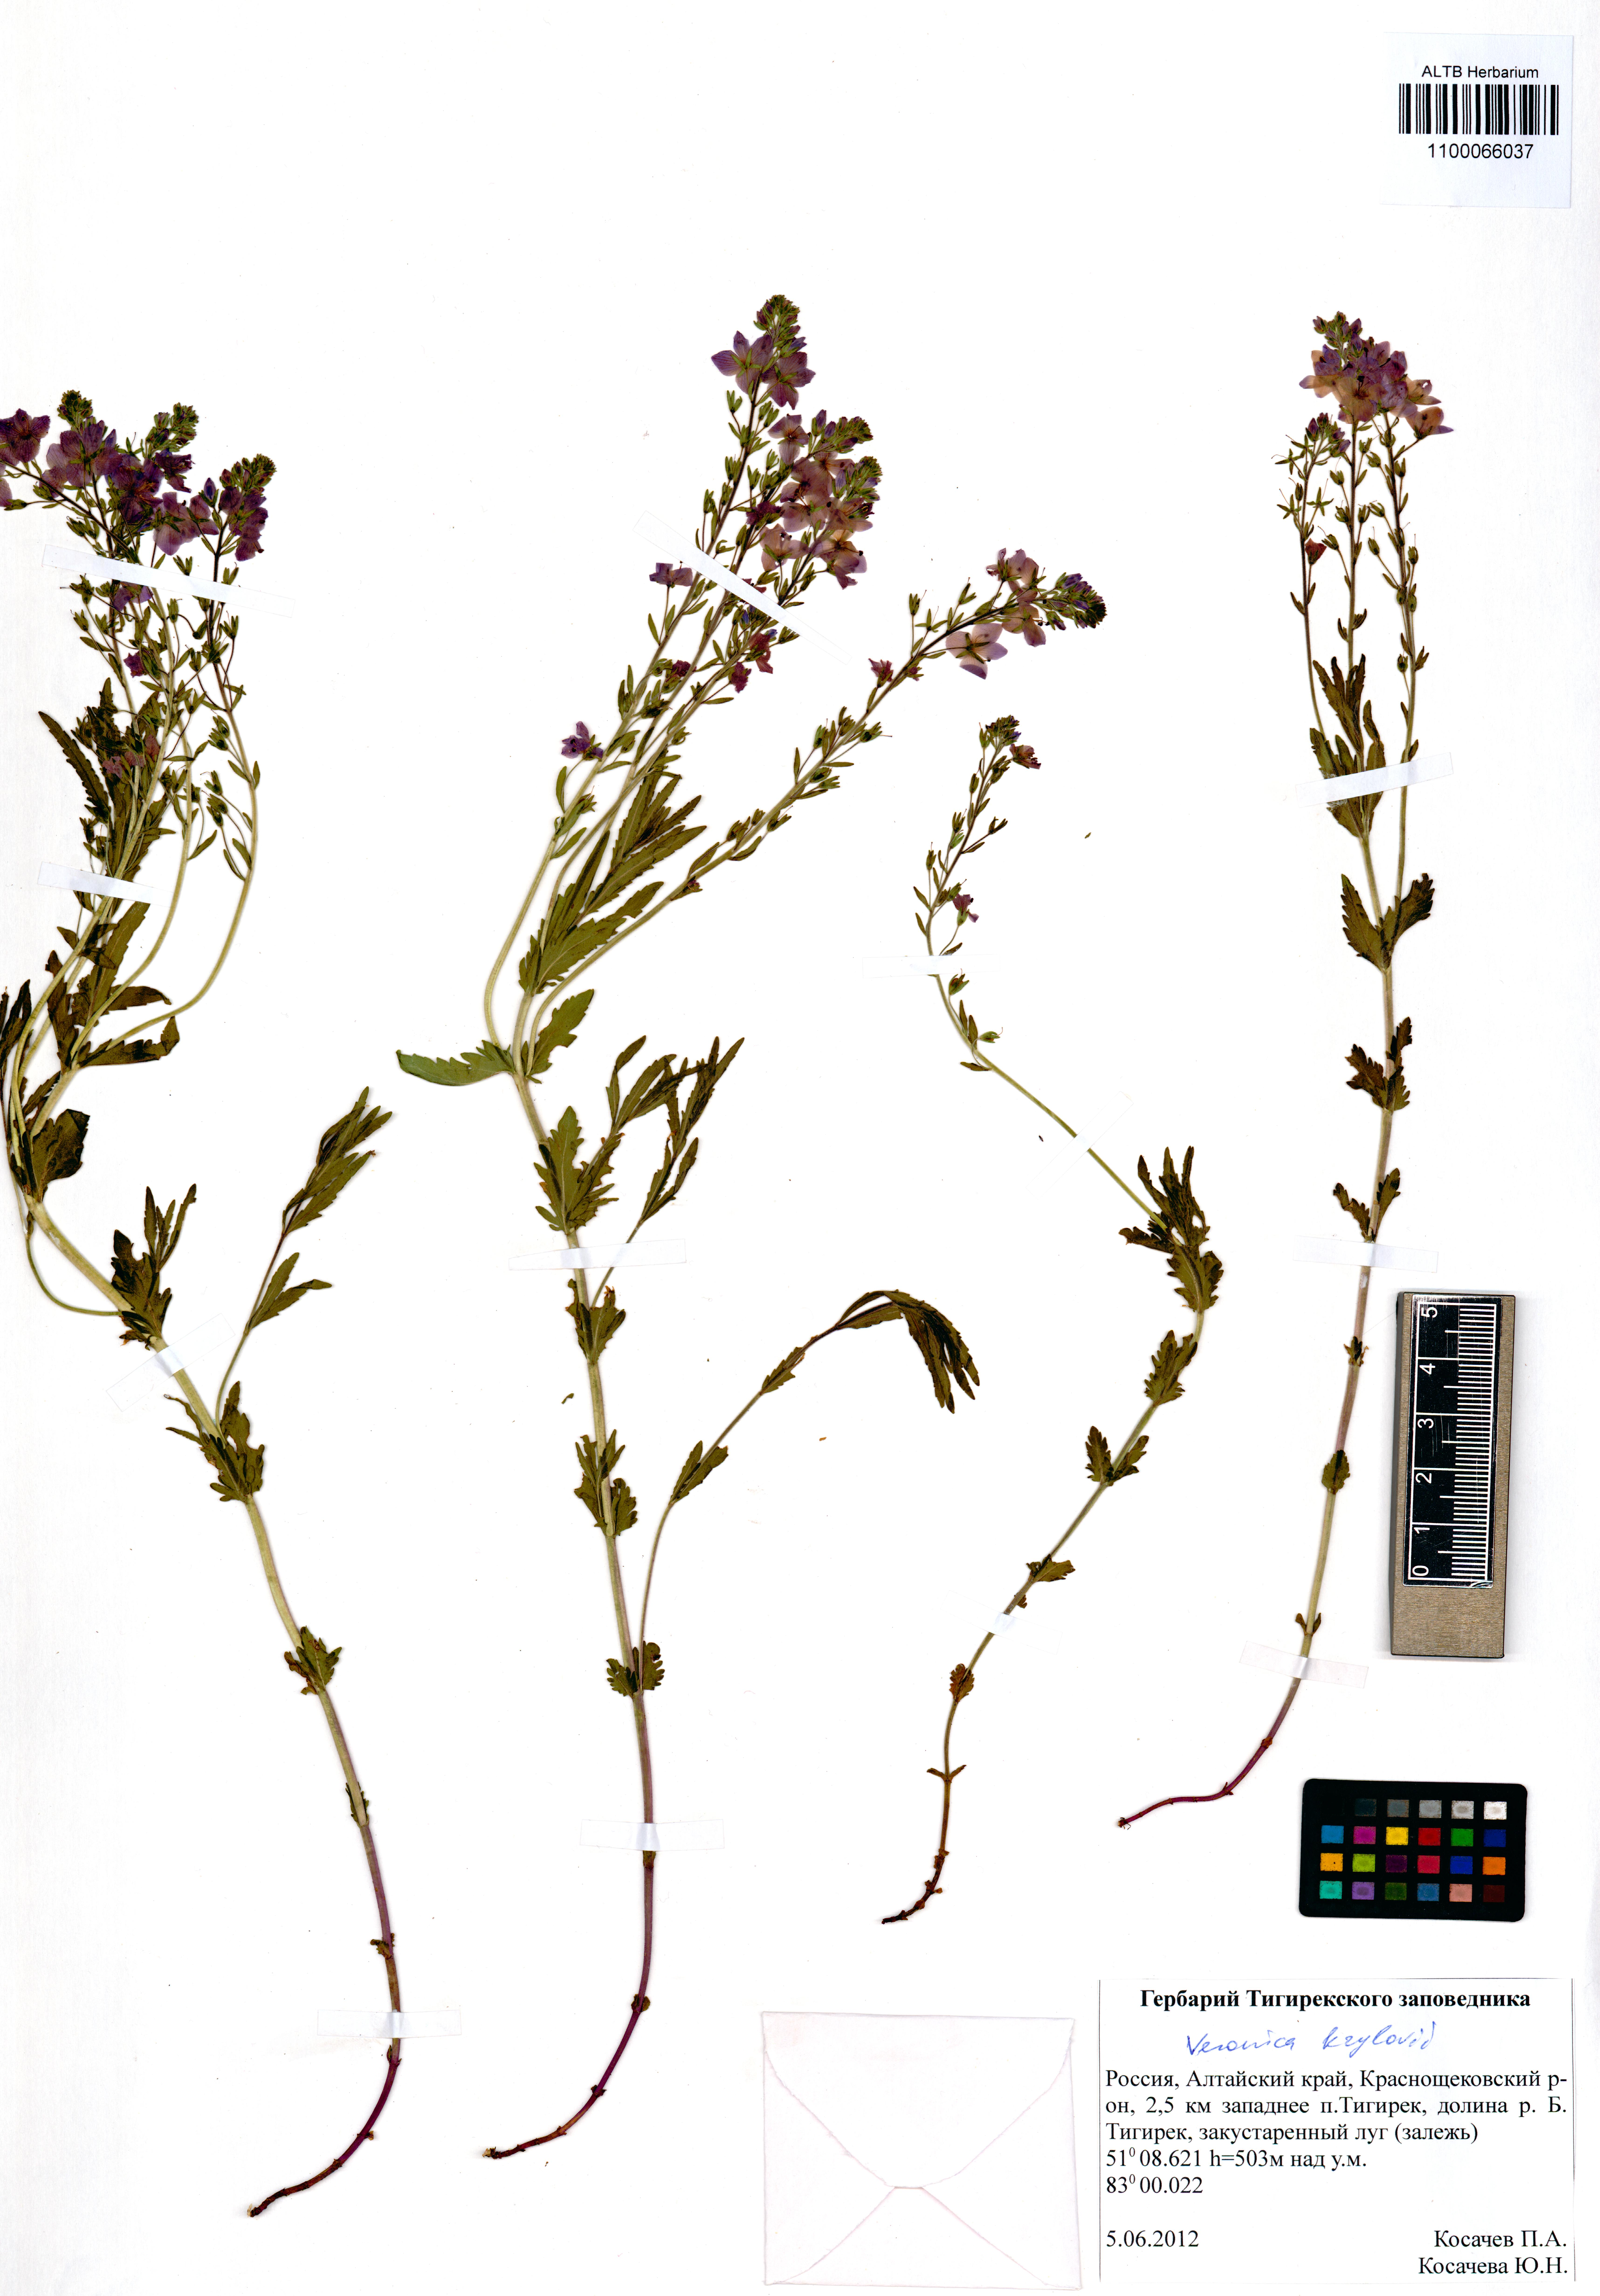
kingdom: Plantae
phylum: Tracheophyta
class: Magnoliopsida
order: Lamiales
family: Plantaginaceae
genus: Veronica
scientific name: Veronica krylovii
